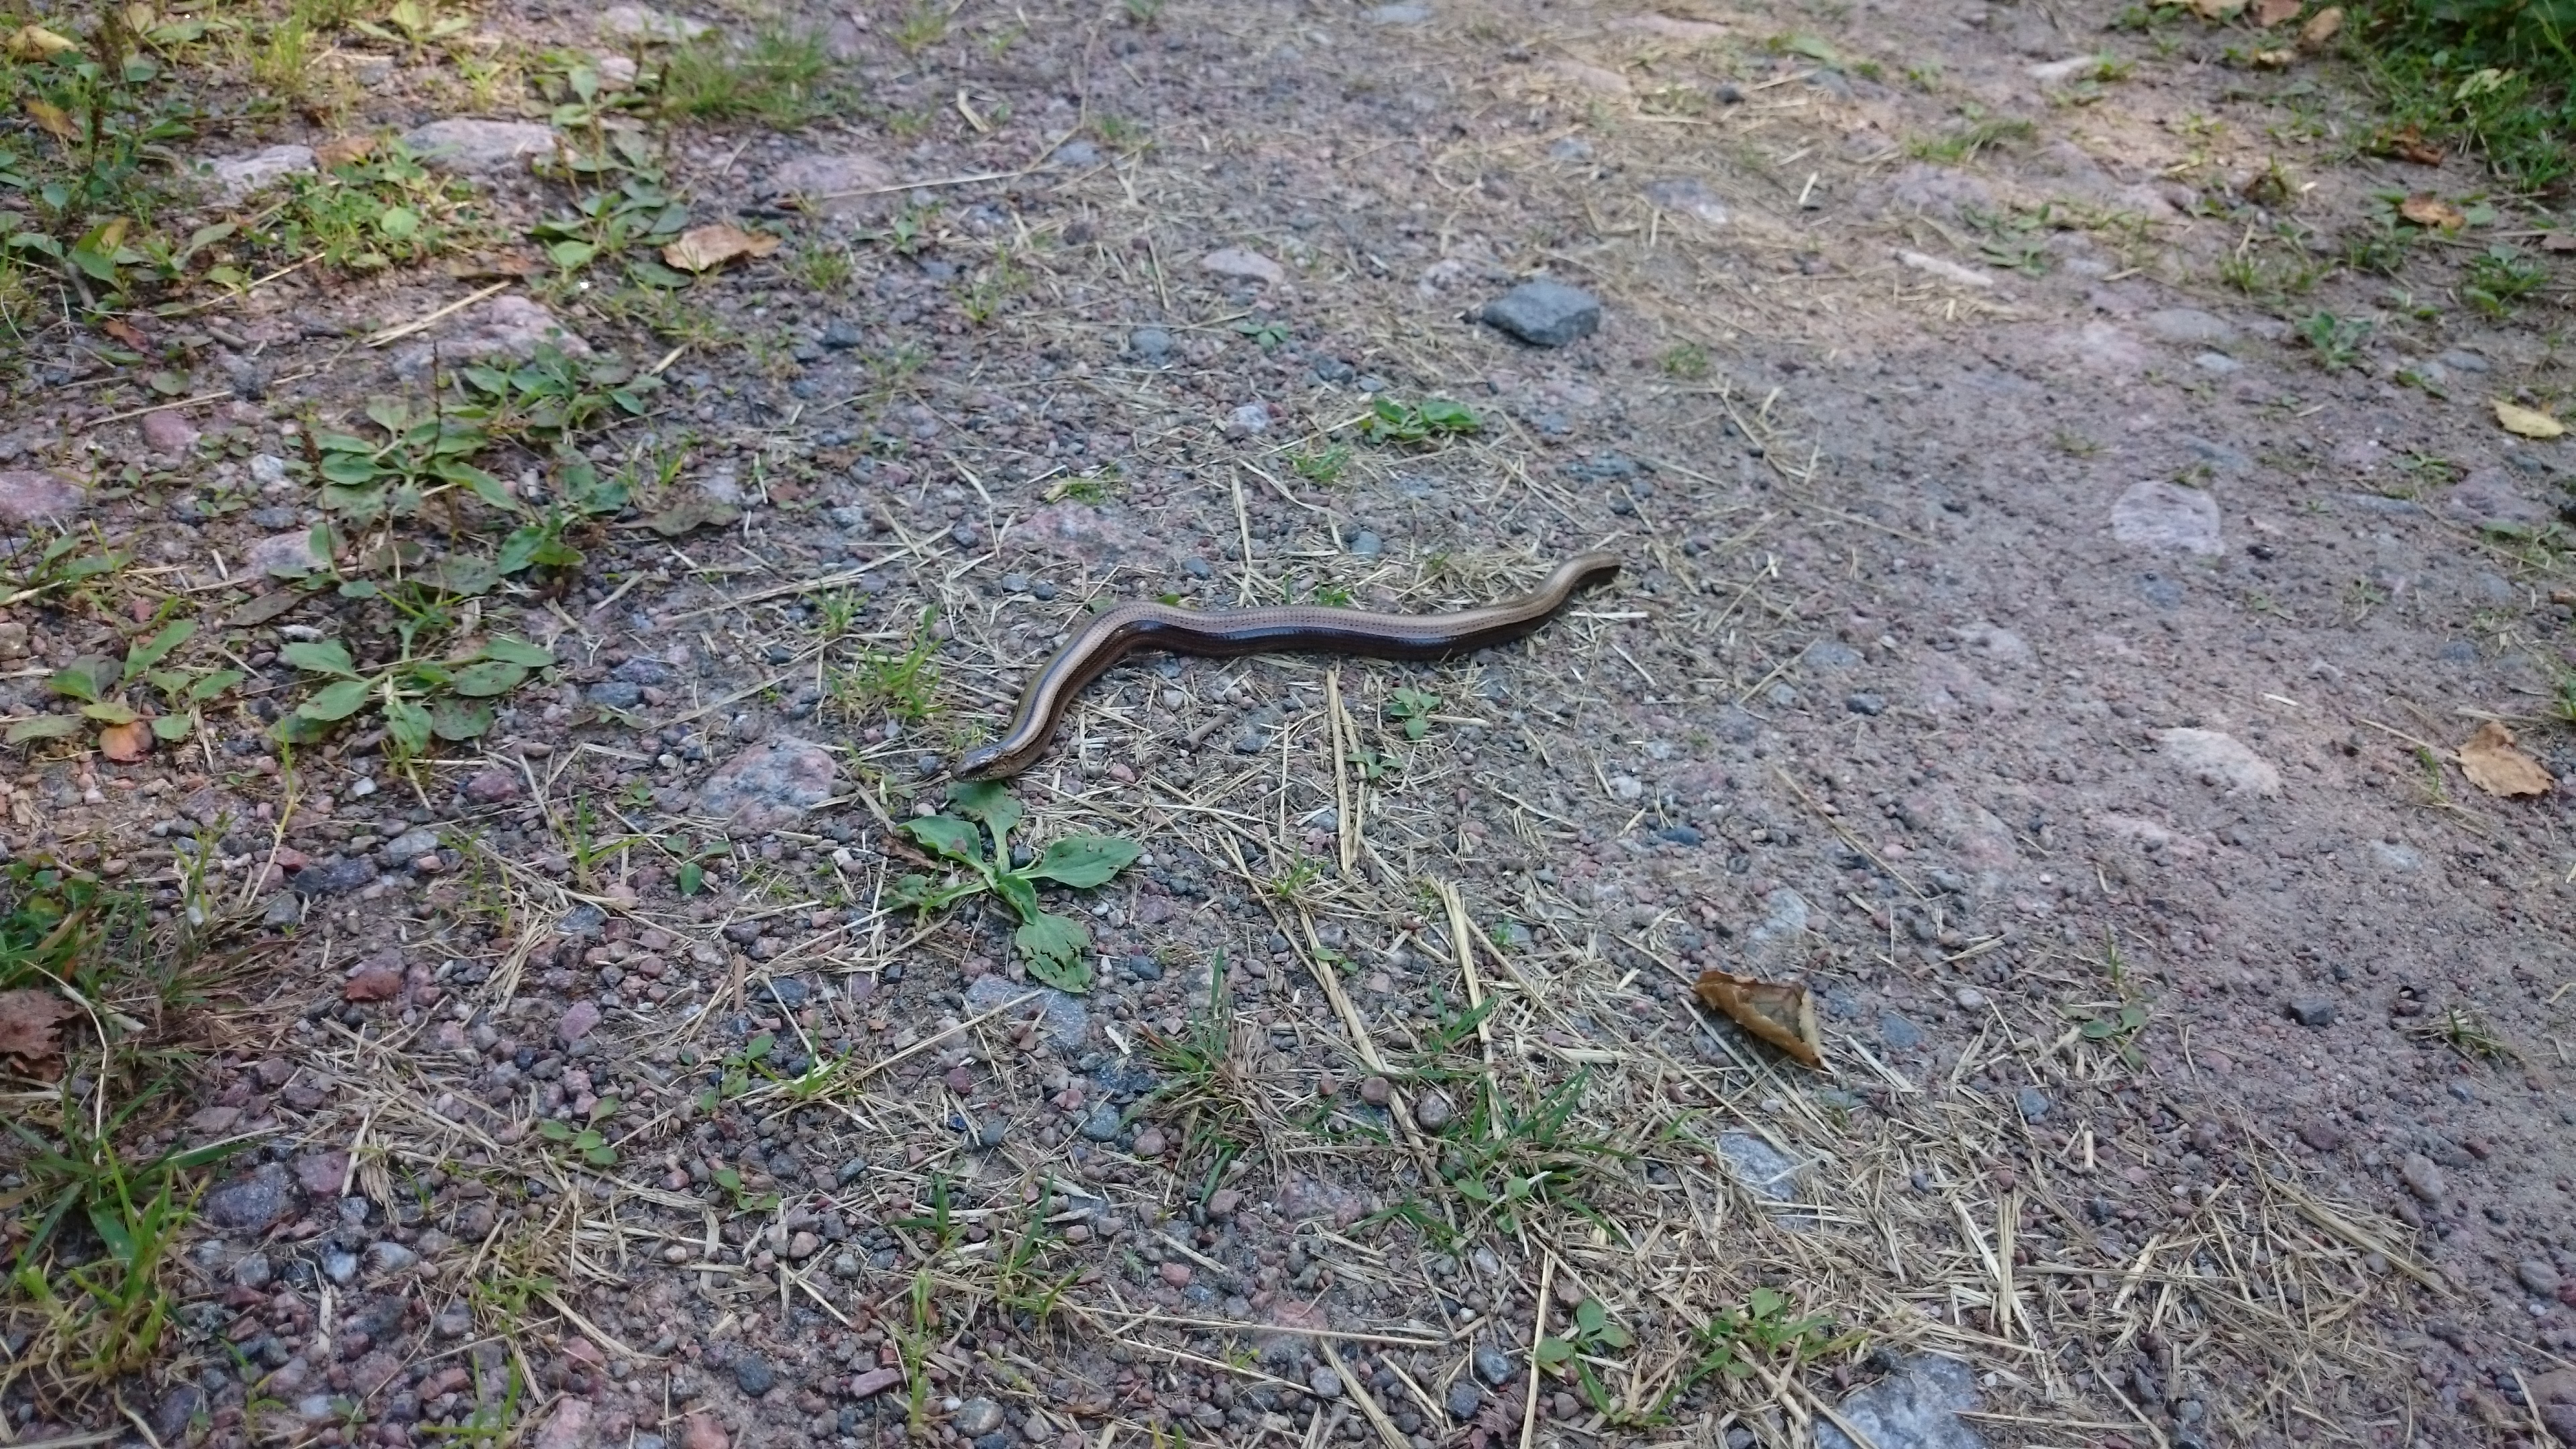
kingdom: Animalia
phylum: Chordata
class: Squamata
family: Anguidae
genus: Anguis
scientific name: Anguis colchica
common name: Slow worm
